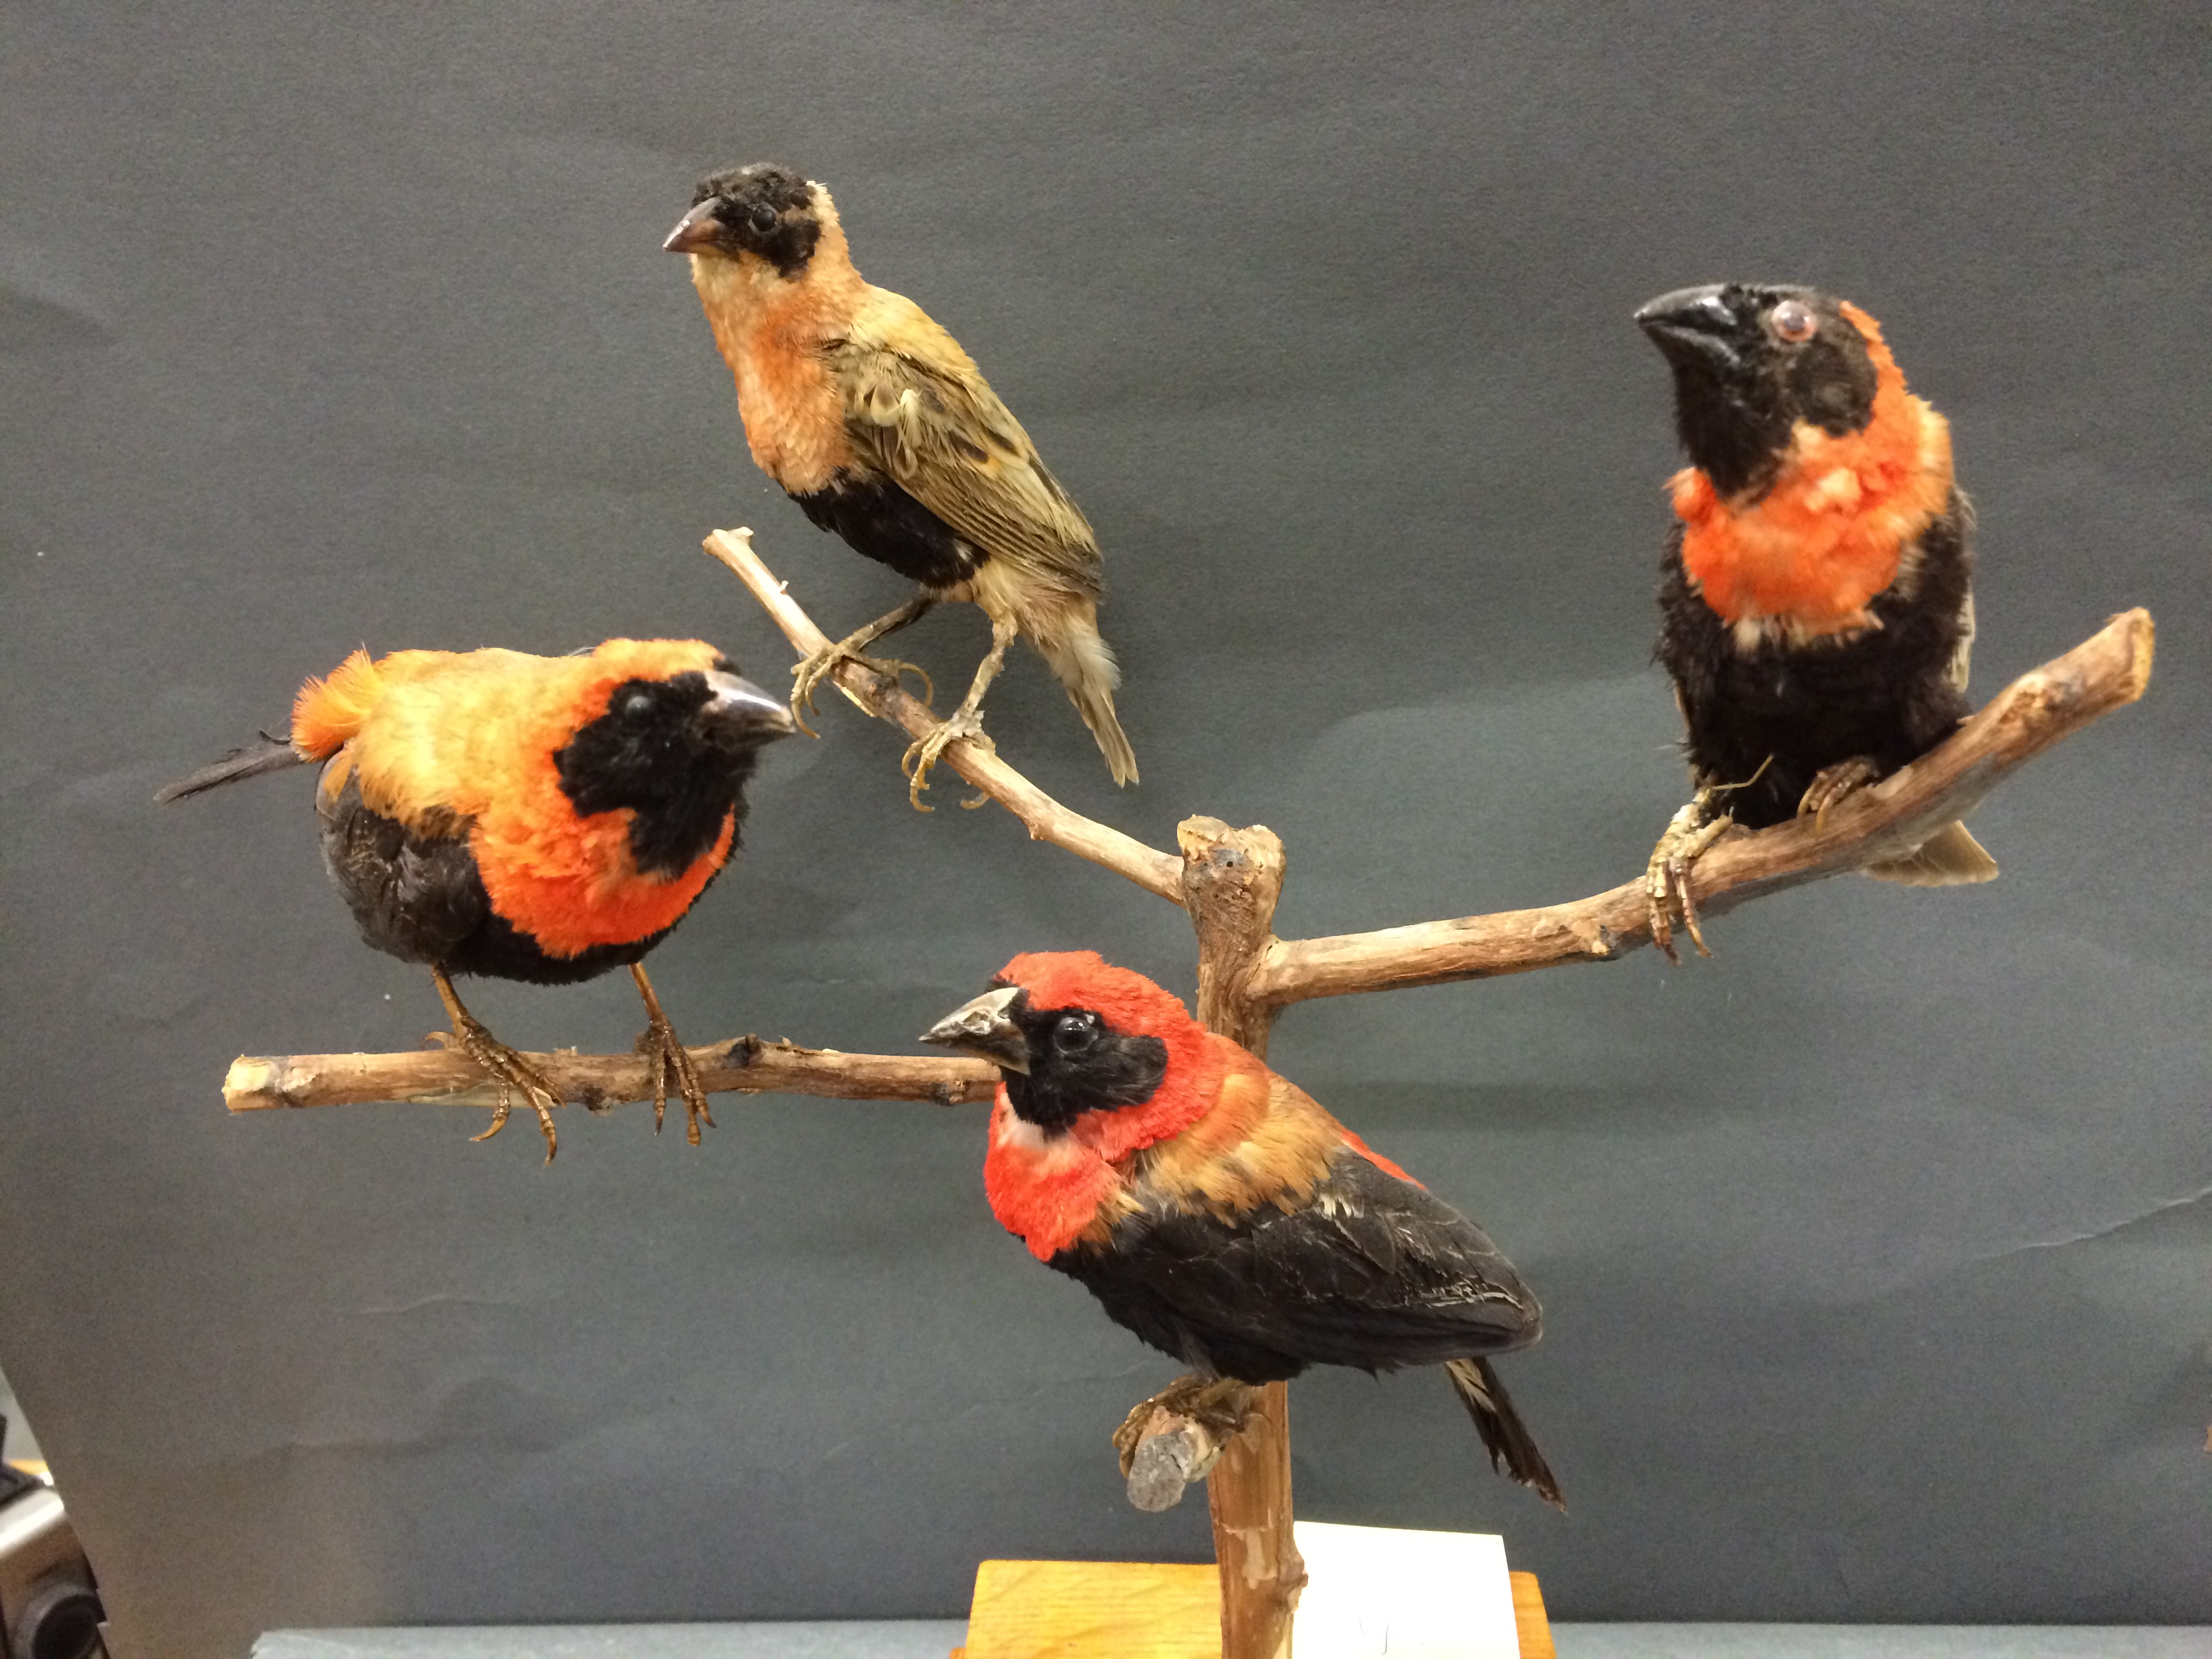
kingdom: Animalia
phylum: Chordata
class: Aves
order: Passeriformes
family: Ploceidae
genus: Euplectes
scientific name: Euplectes orix
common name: Southern red bishop
